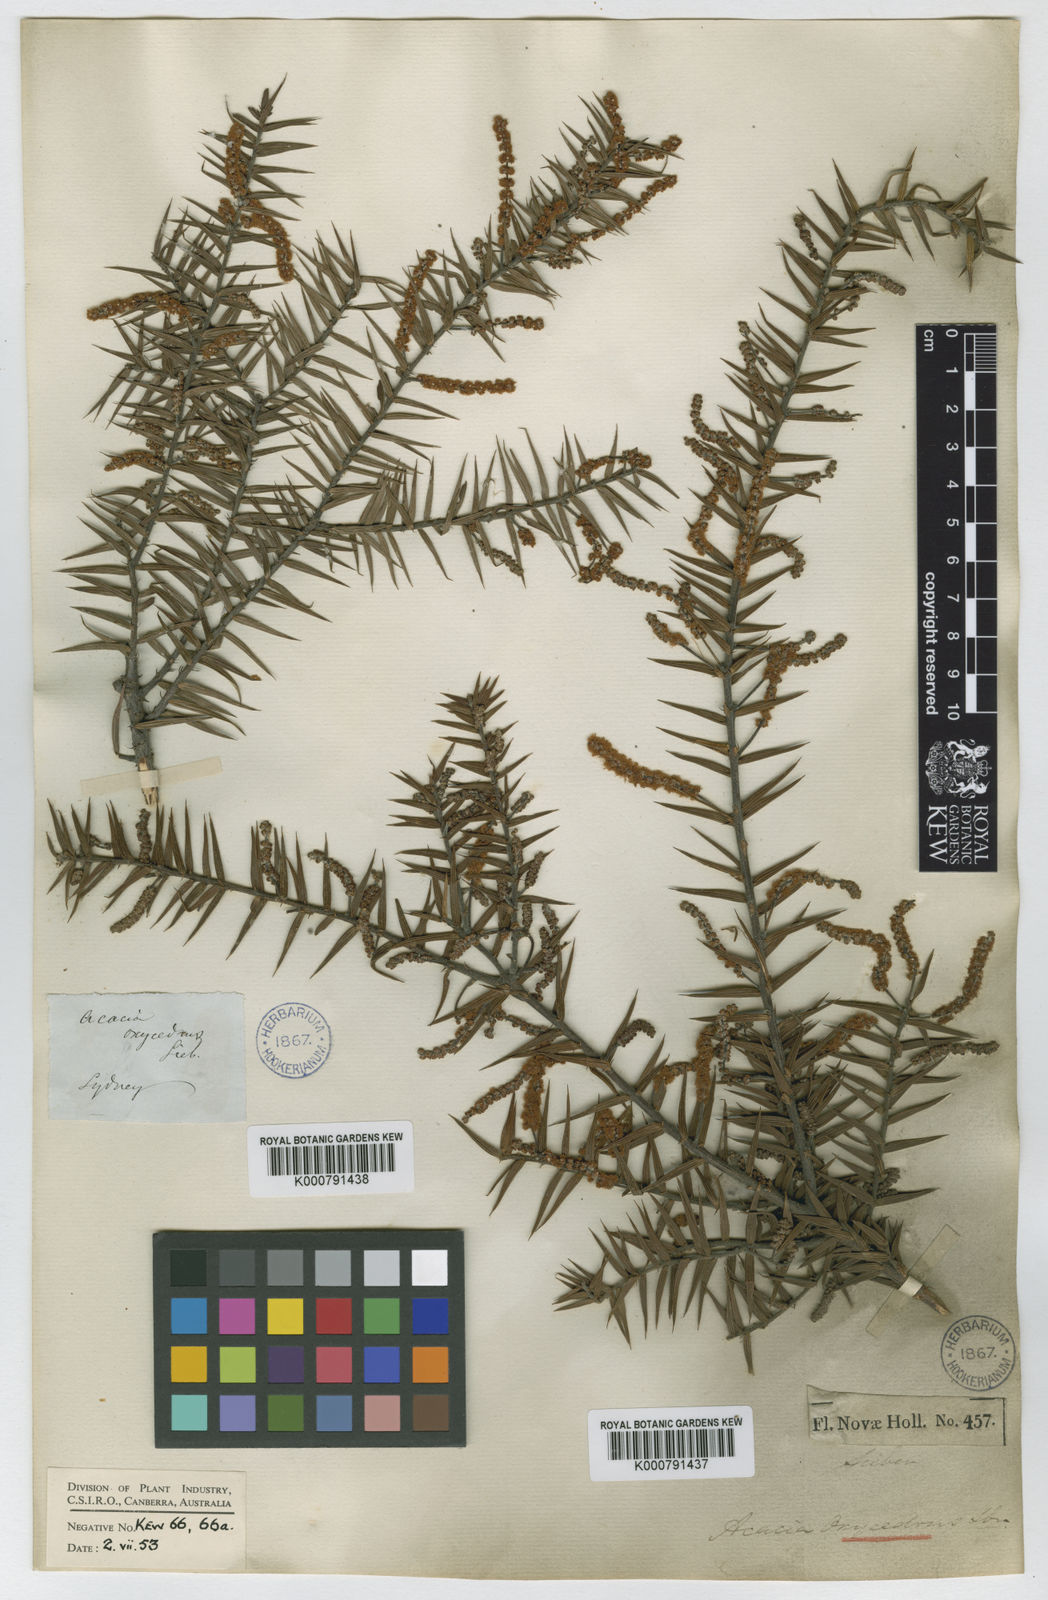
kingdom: Plantae
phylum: Tracheophyta
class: Magnoliopsida
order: Fabales
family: Fabaceae
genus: Acacia
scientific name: Acacia oxycedrus
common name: Spike wattle
